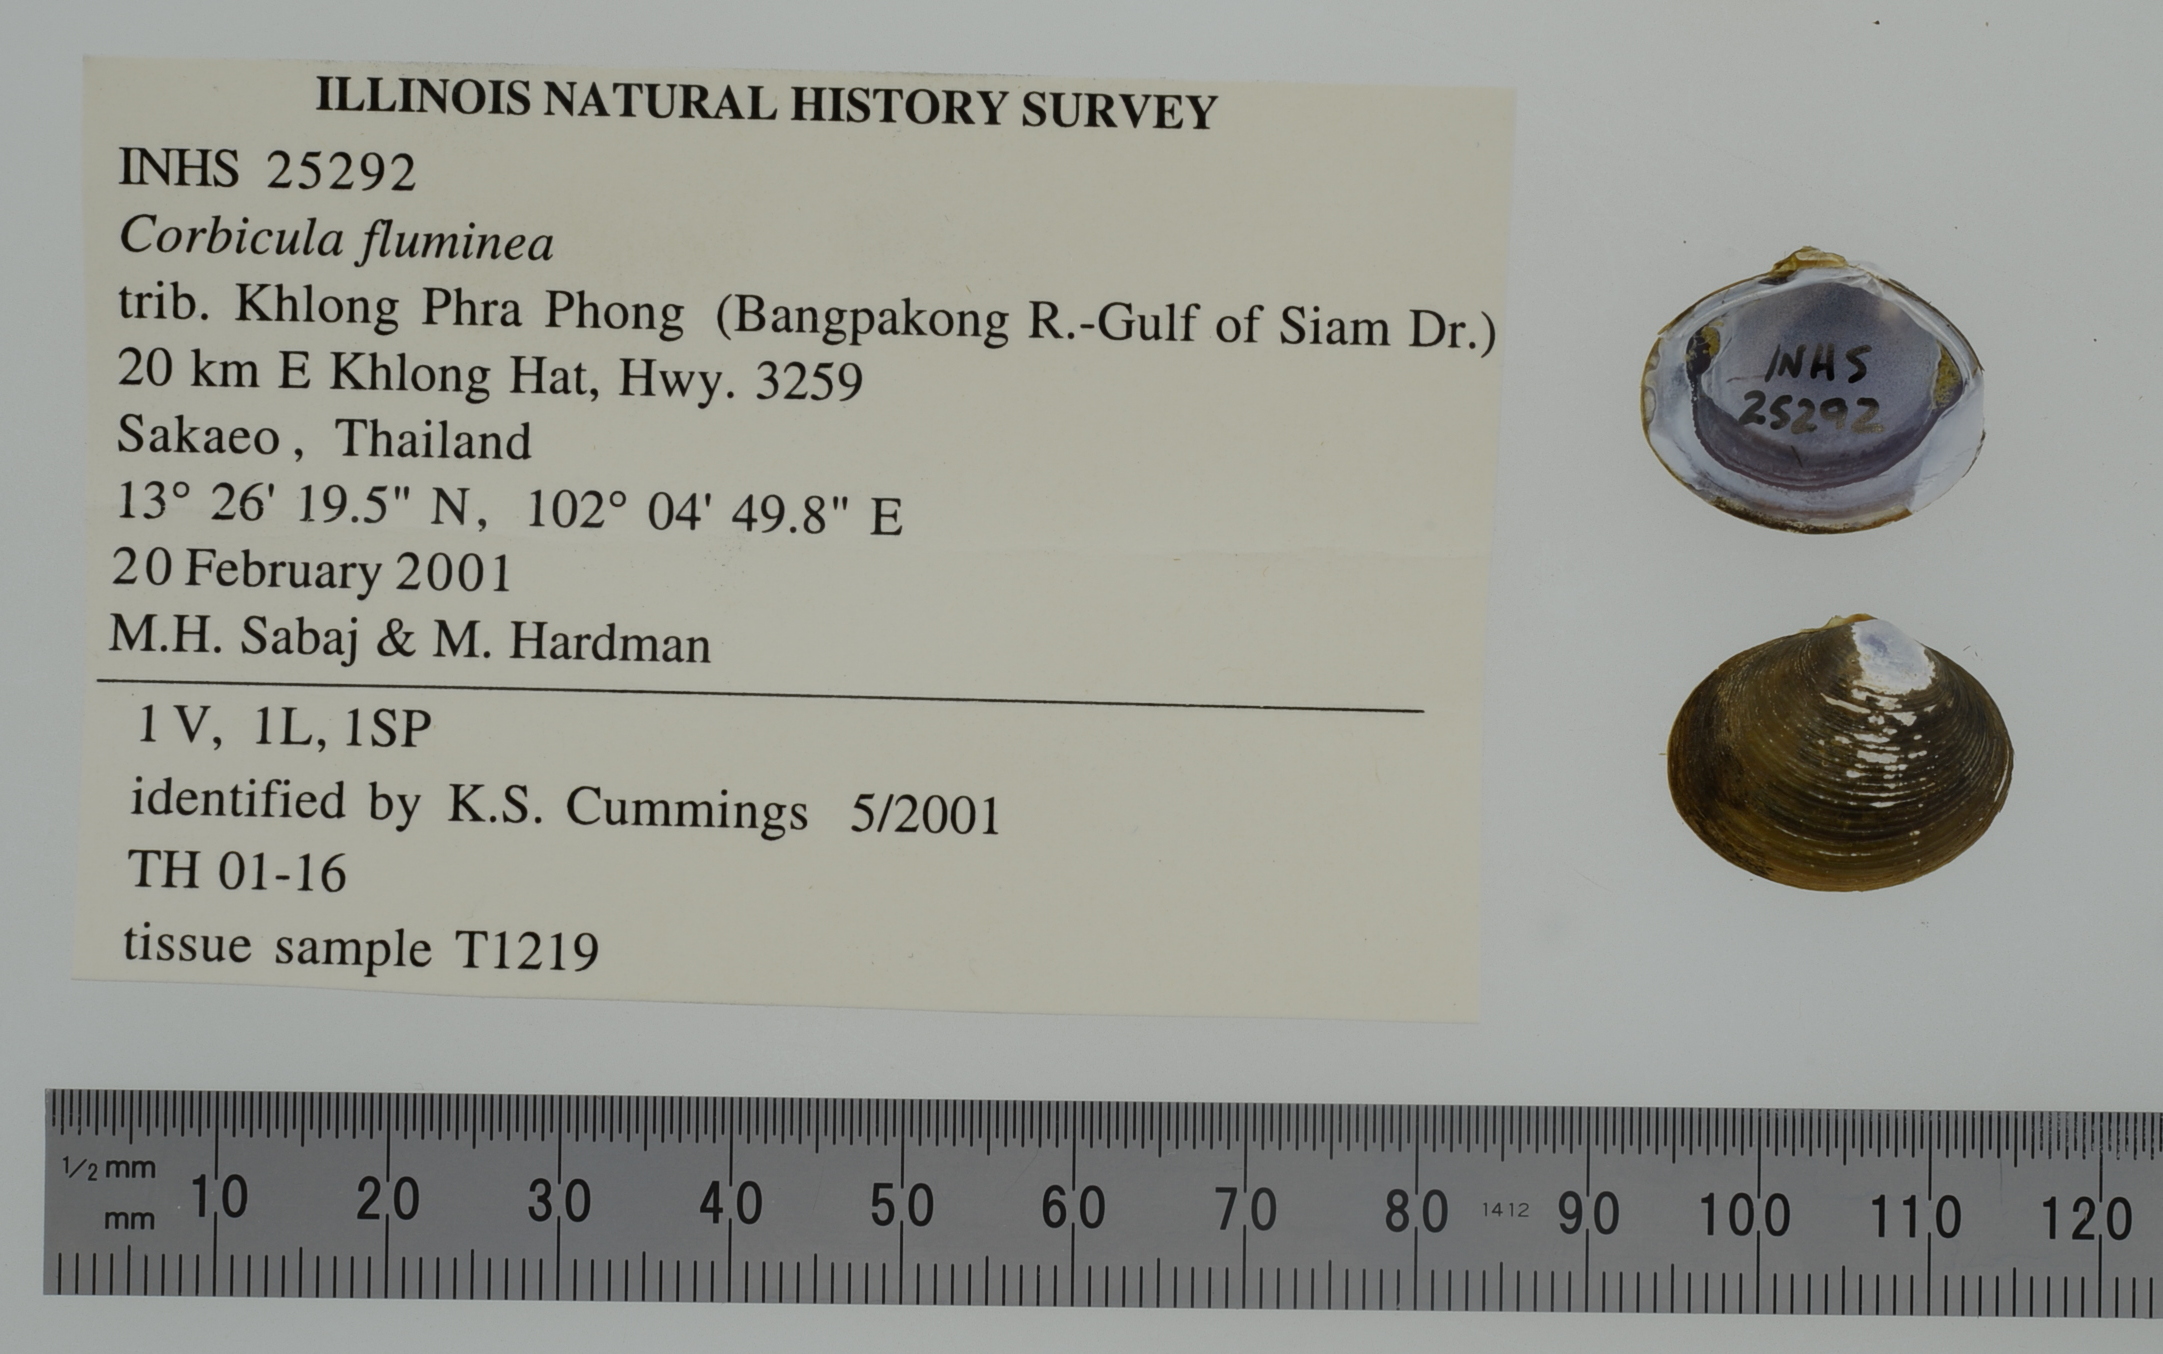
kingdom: Animalia
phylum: Mollusca
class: Bivalvia
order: Venerida
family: Cyrenidae
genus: Corbicula
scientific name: Corbicula largillierti
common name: Purple asian clam
